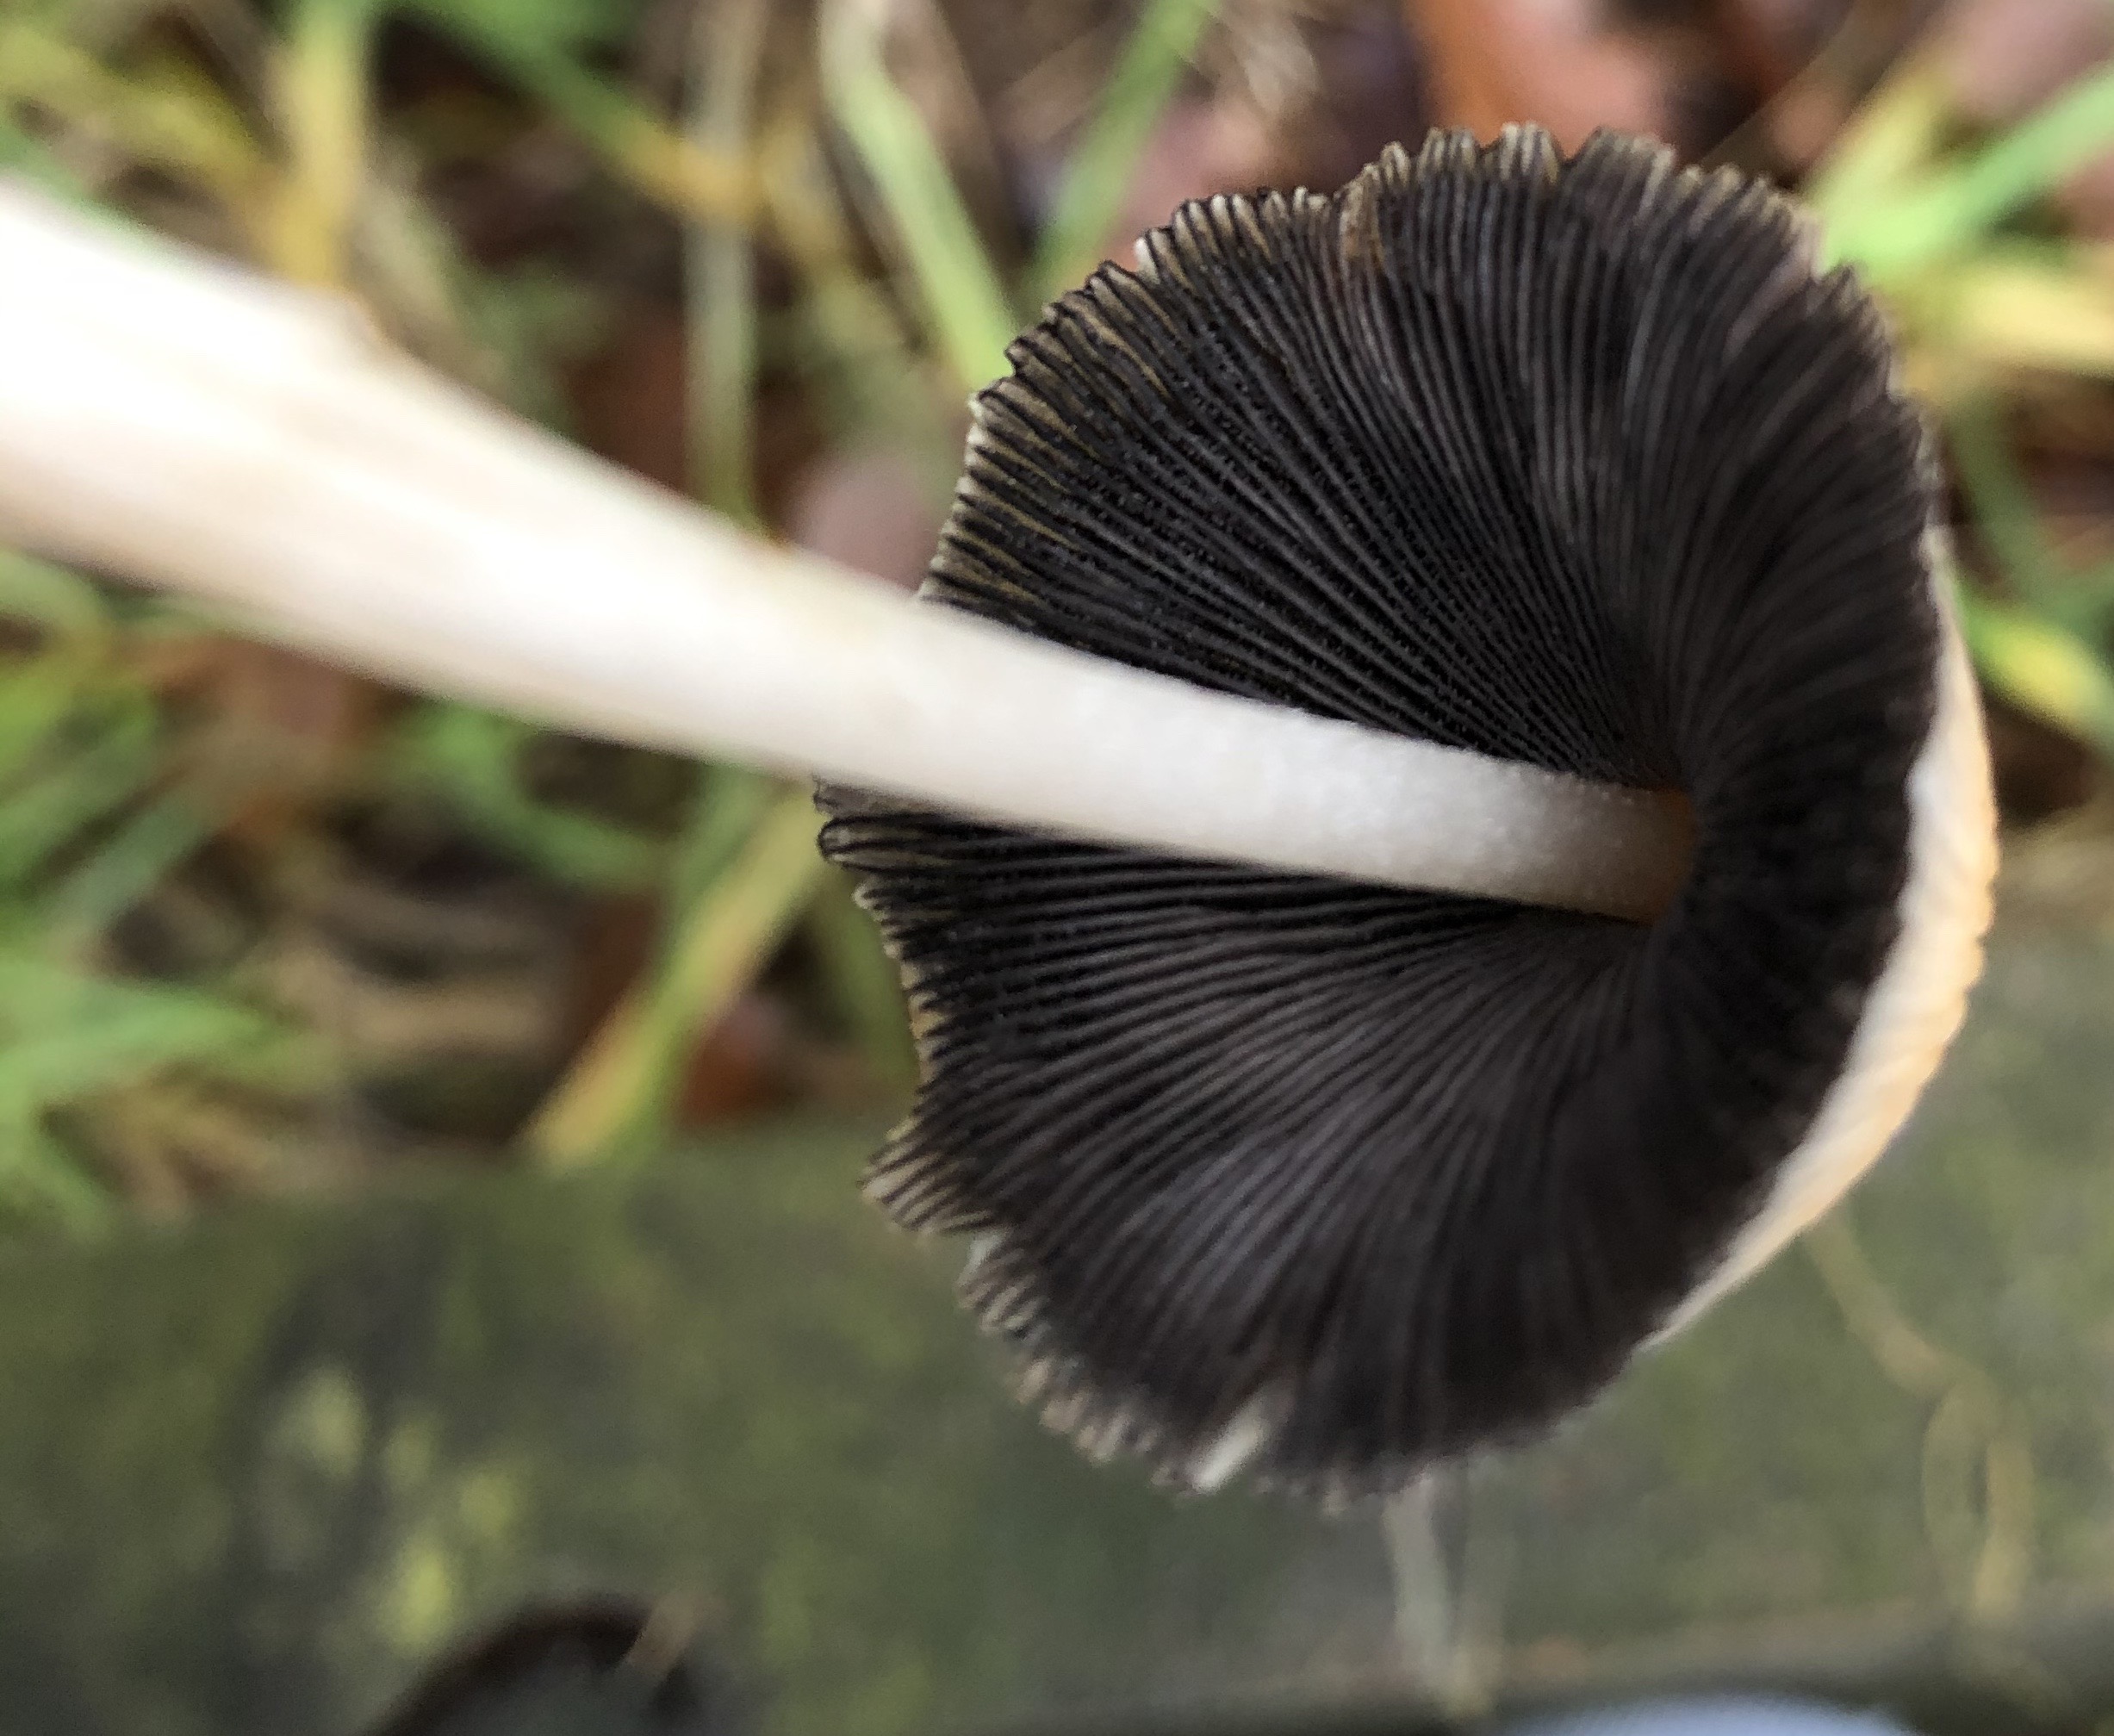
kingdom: Fungi
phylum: Basidiomycota
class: Agaricomycetes
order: Agaricales
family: Psathyrellaceae
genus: Coprinellus
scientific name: Coprinellus
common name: blækhat
